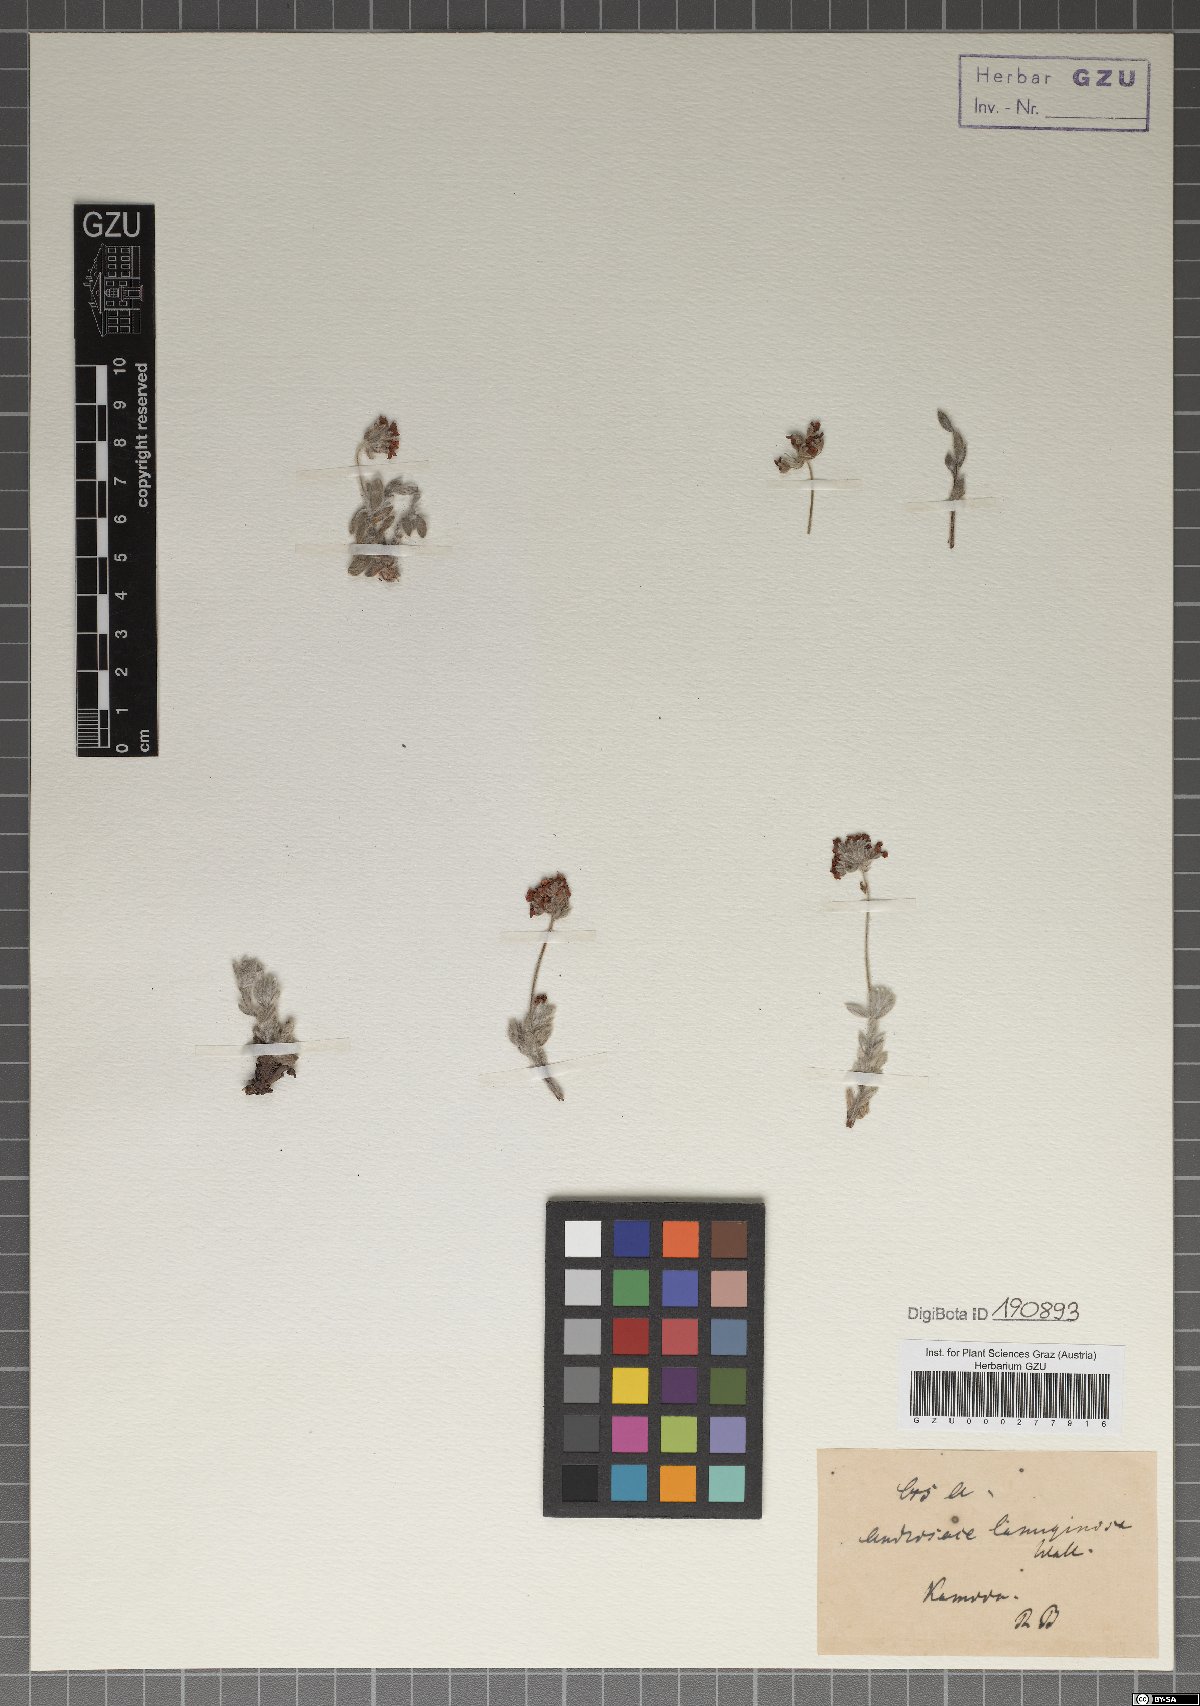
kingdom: Plantae
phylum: Tracheophyta
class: Magnoliopsida
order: Ericales
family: Primulaceae
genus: Androsace
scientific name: Androsace lanuginosa
